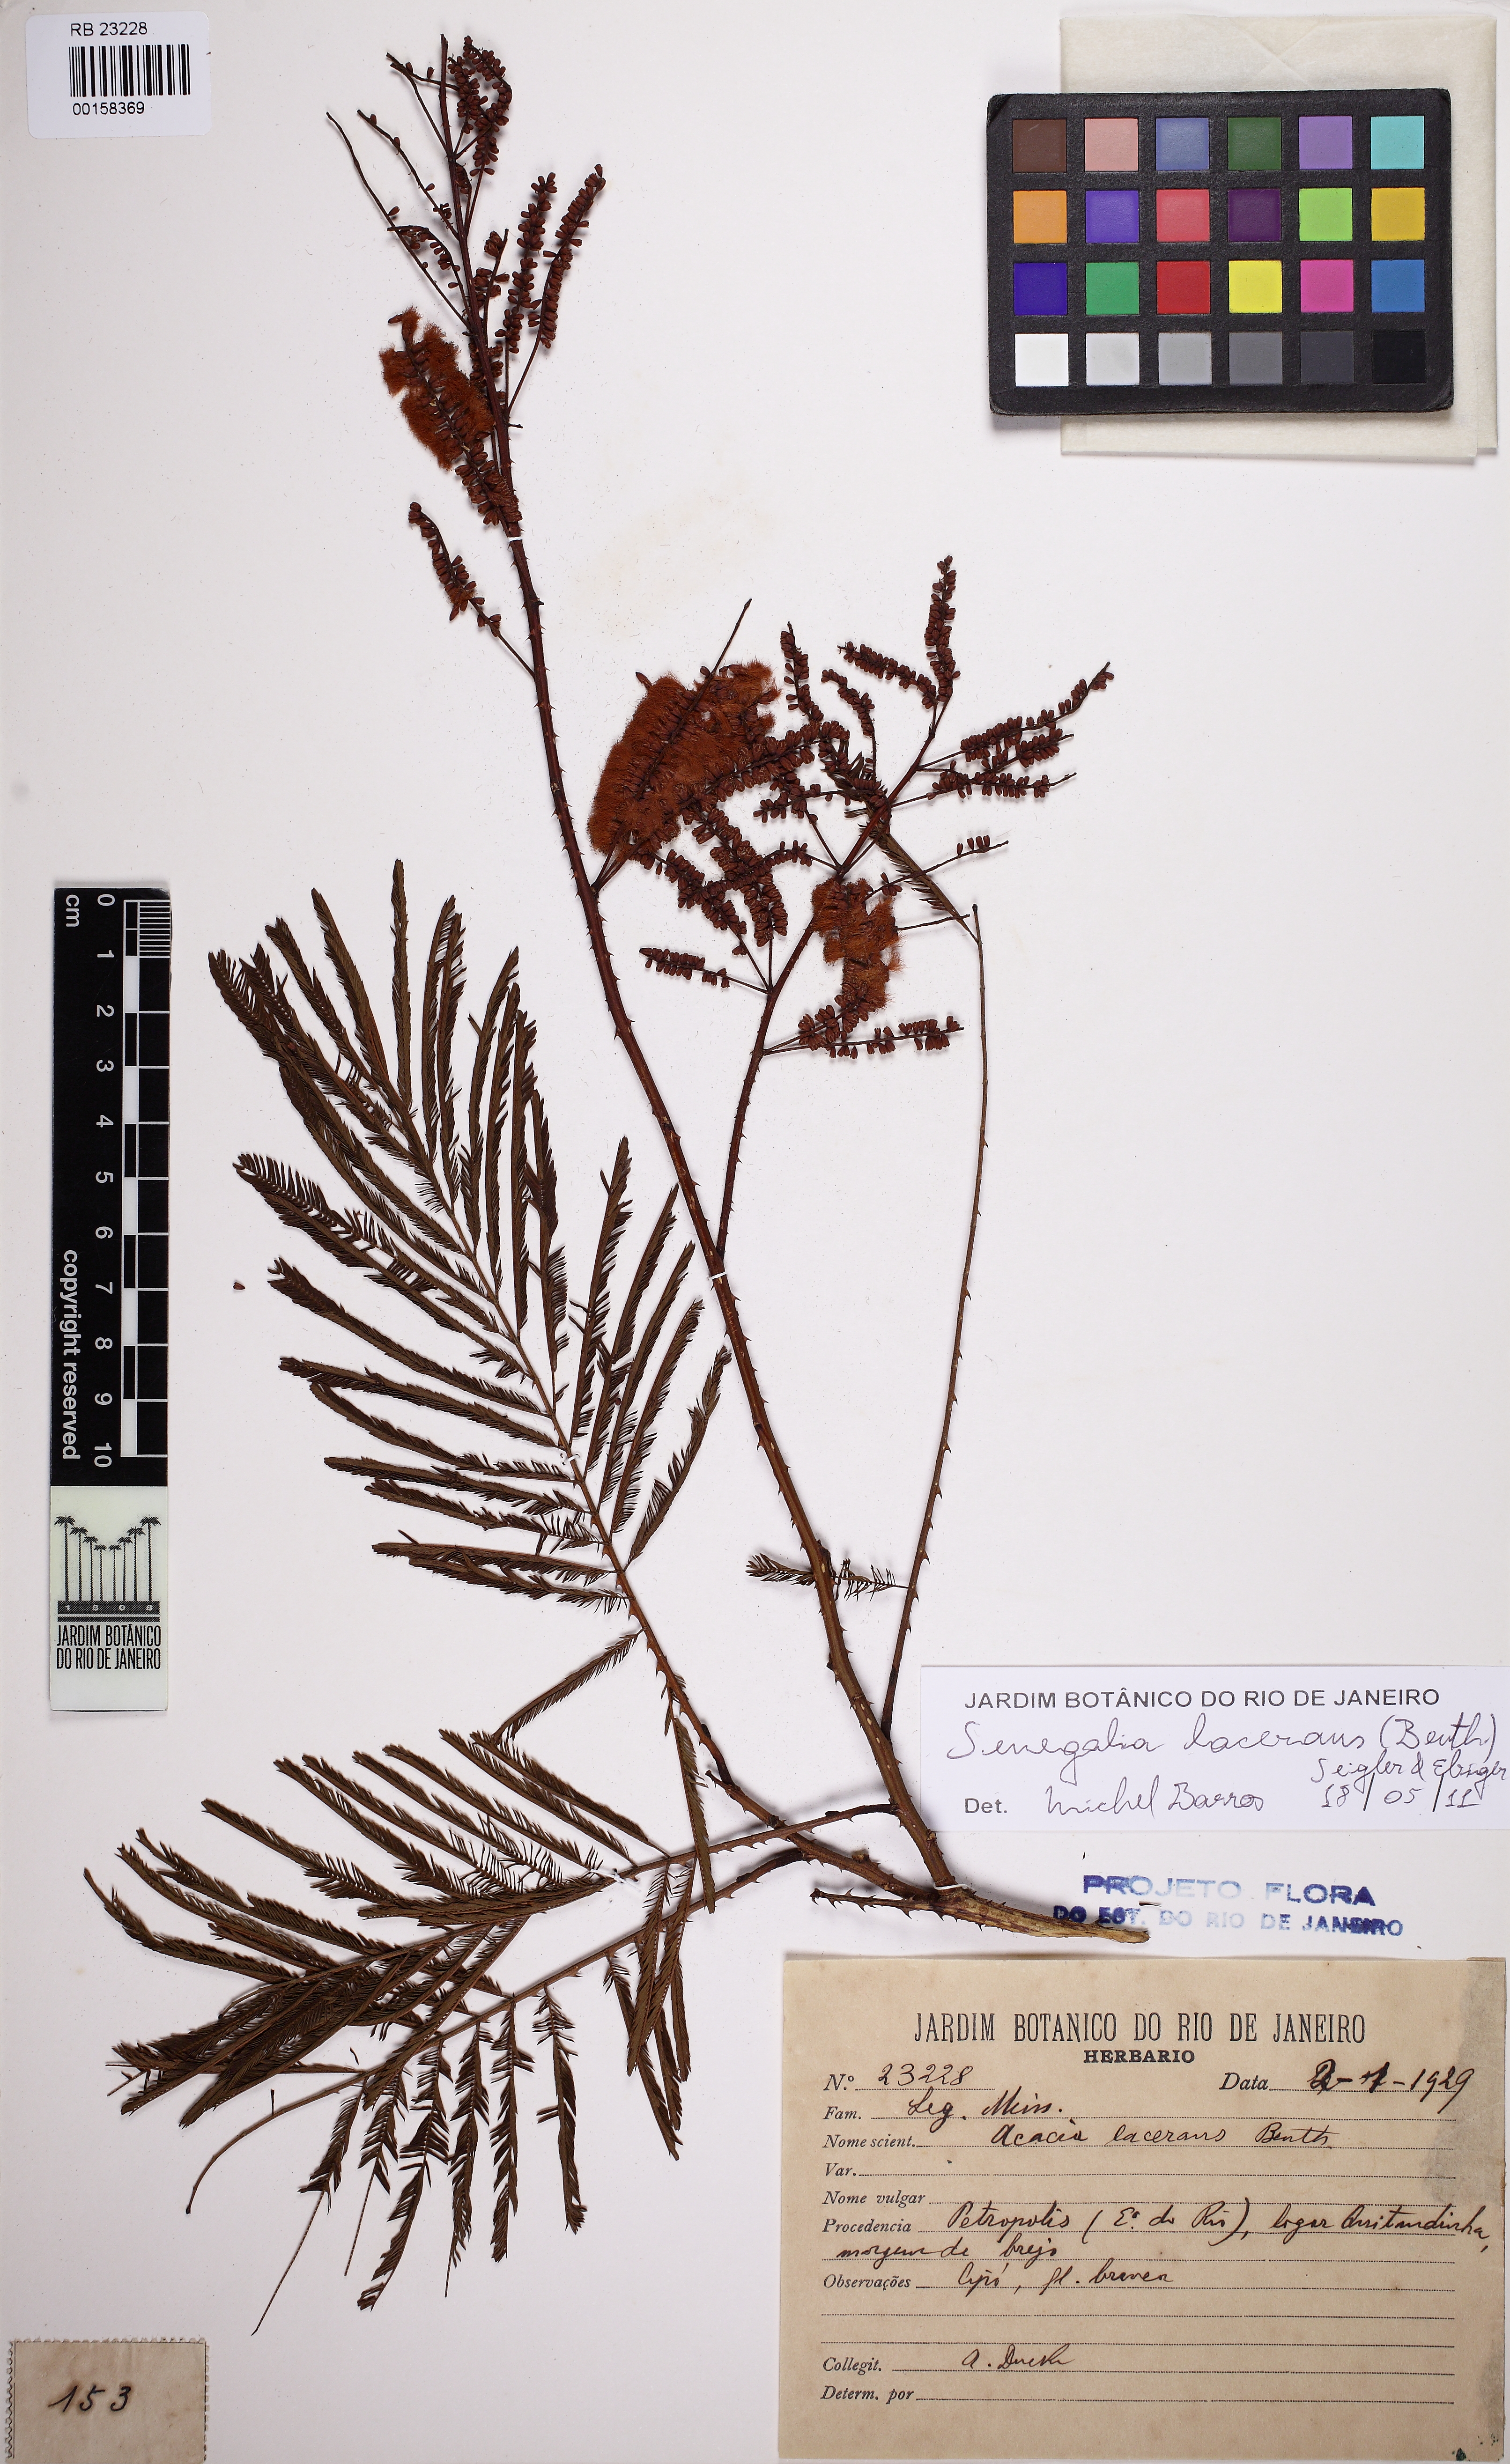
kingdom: Plantae
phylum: Tracheophyta
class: Magnoliopsida
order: Fabales
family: Fabaceae
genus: Senegalia
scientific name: Senegalia lacerans
